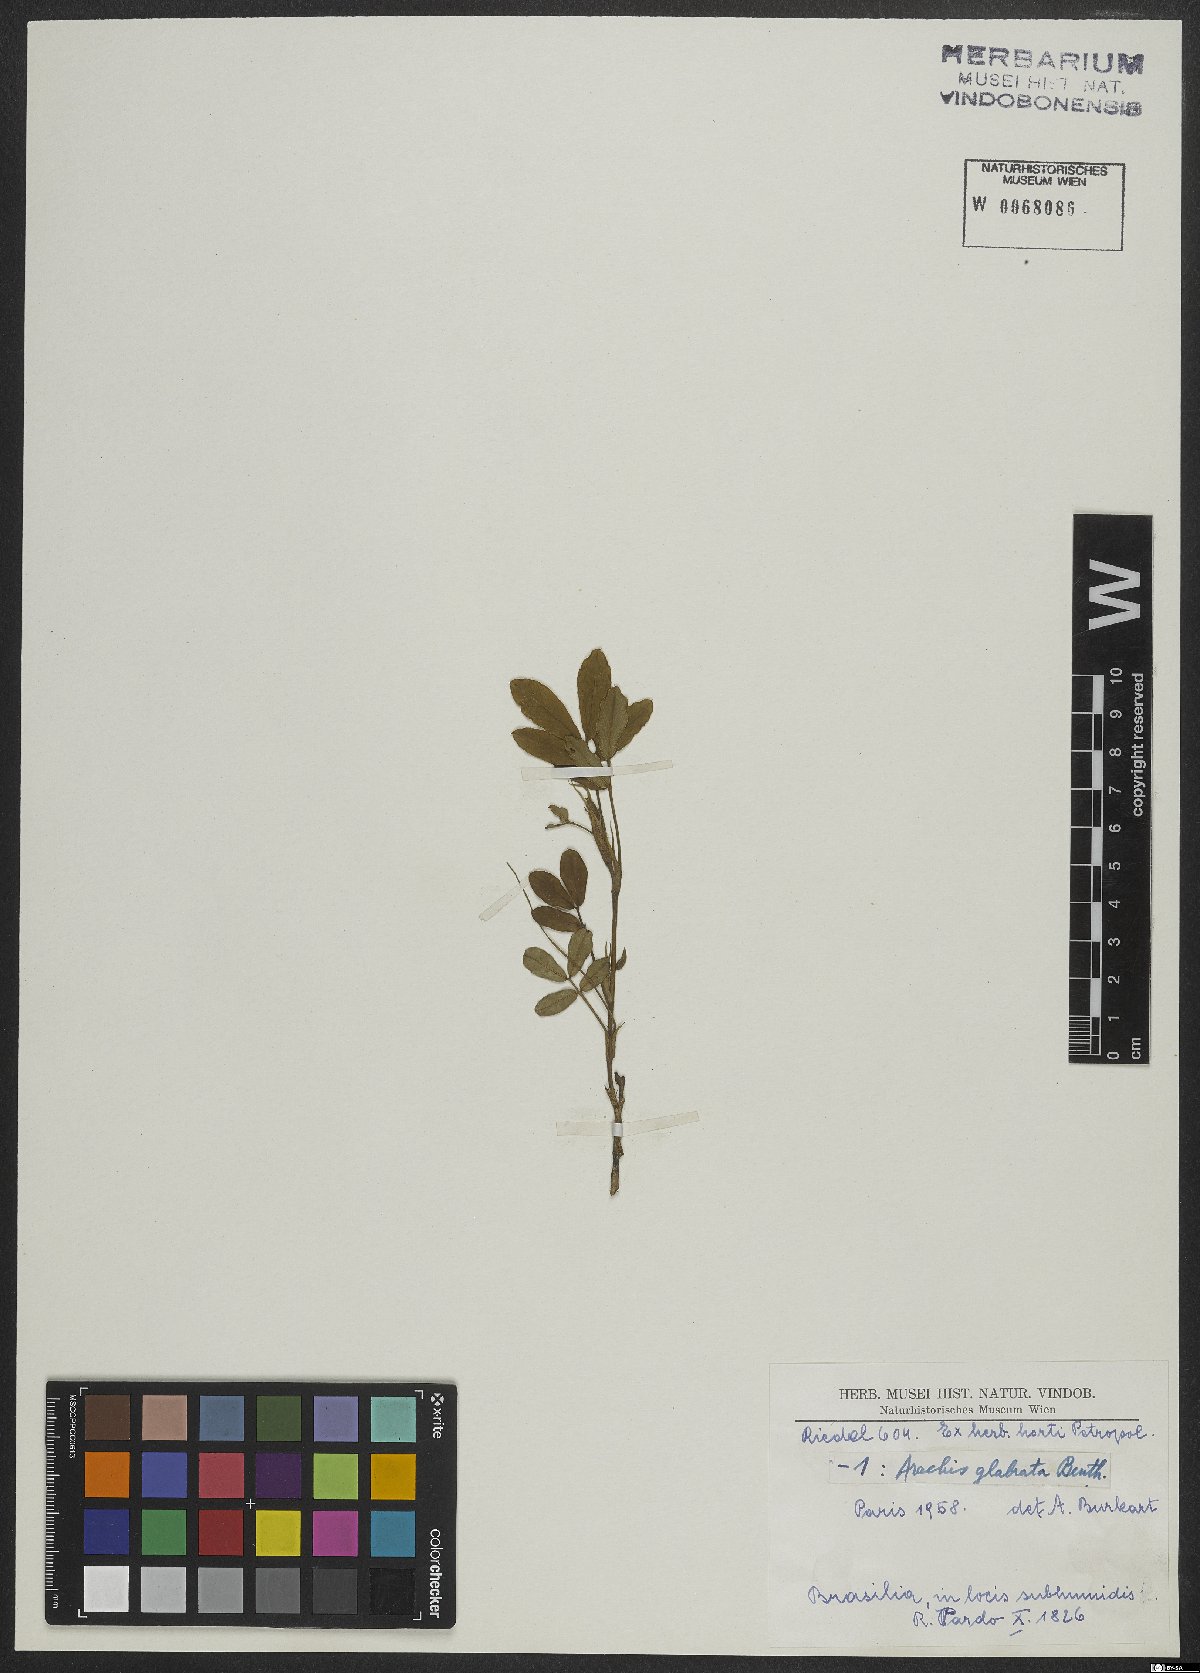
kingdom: Plantae
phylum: Tracheophyta
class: Magnoliopsida
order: Fabales
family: Fabaceae
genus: Arachis
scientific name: Arachis glabrata
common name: Rhizoma peanut
